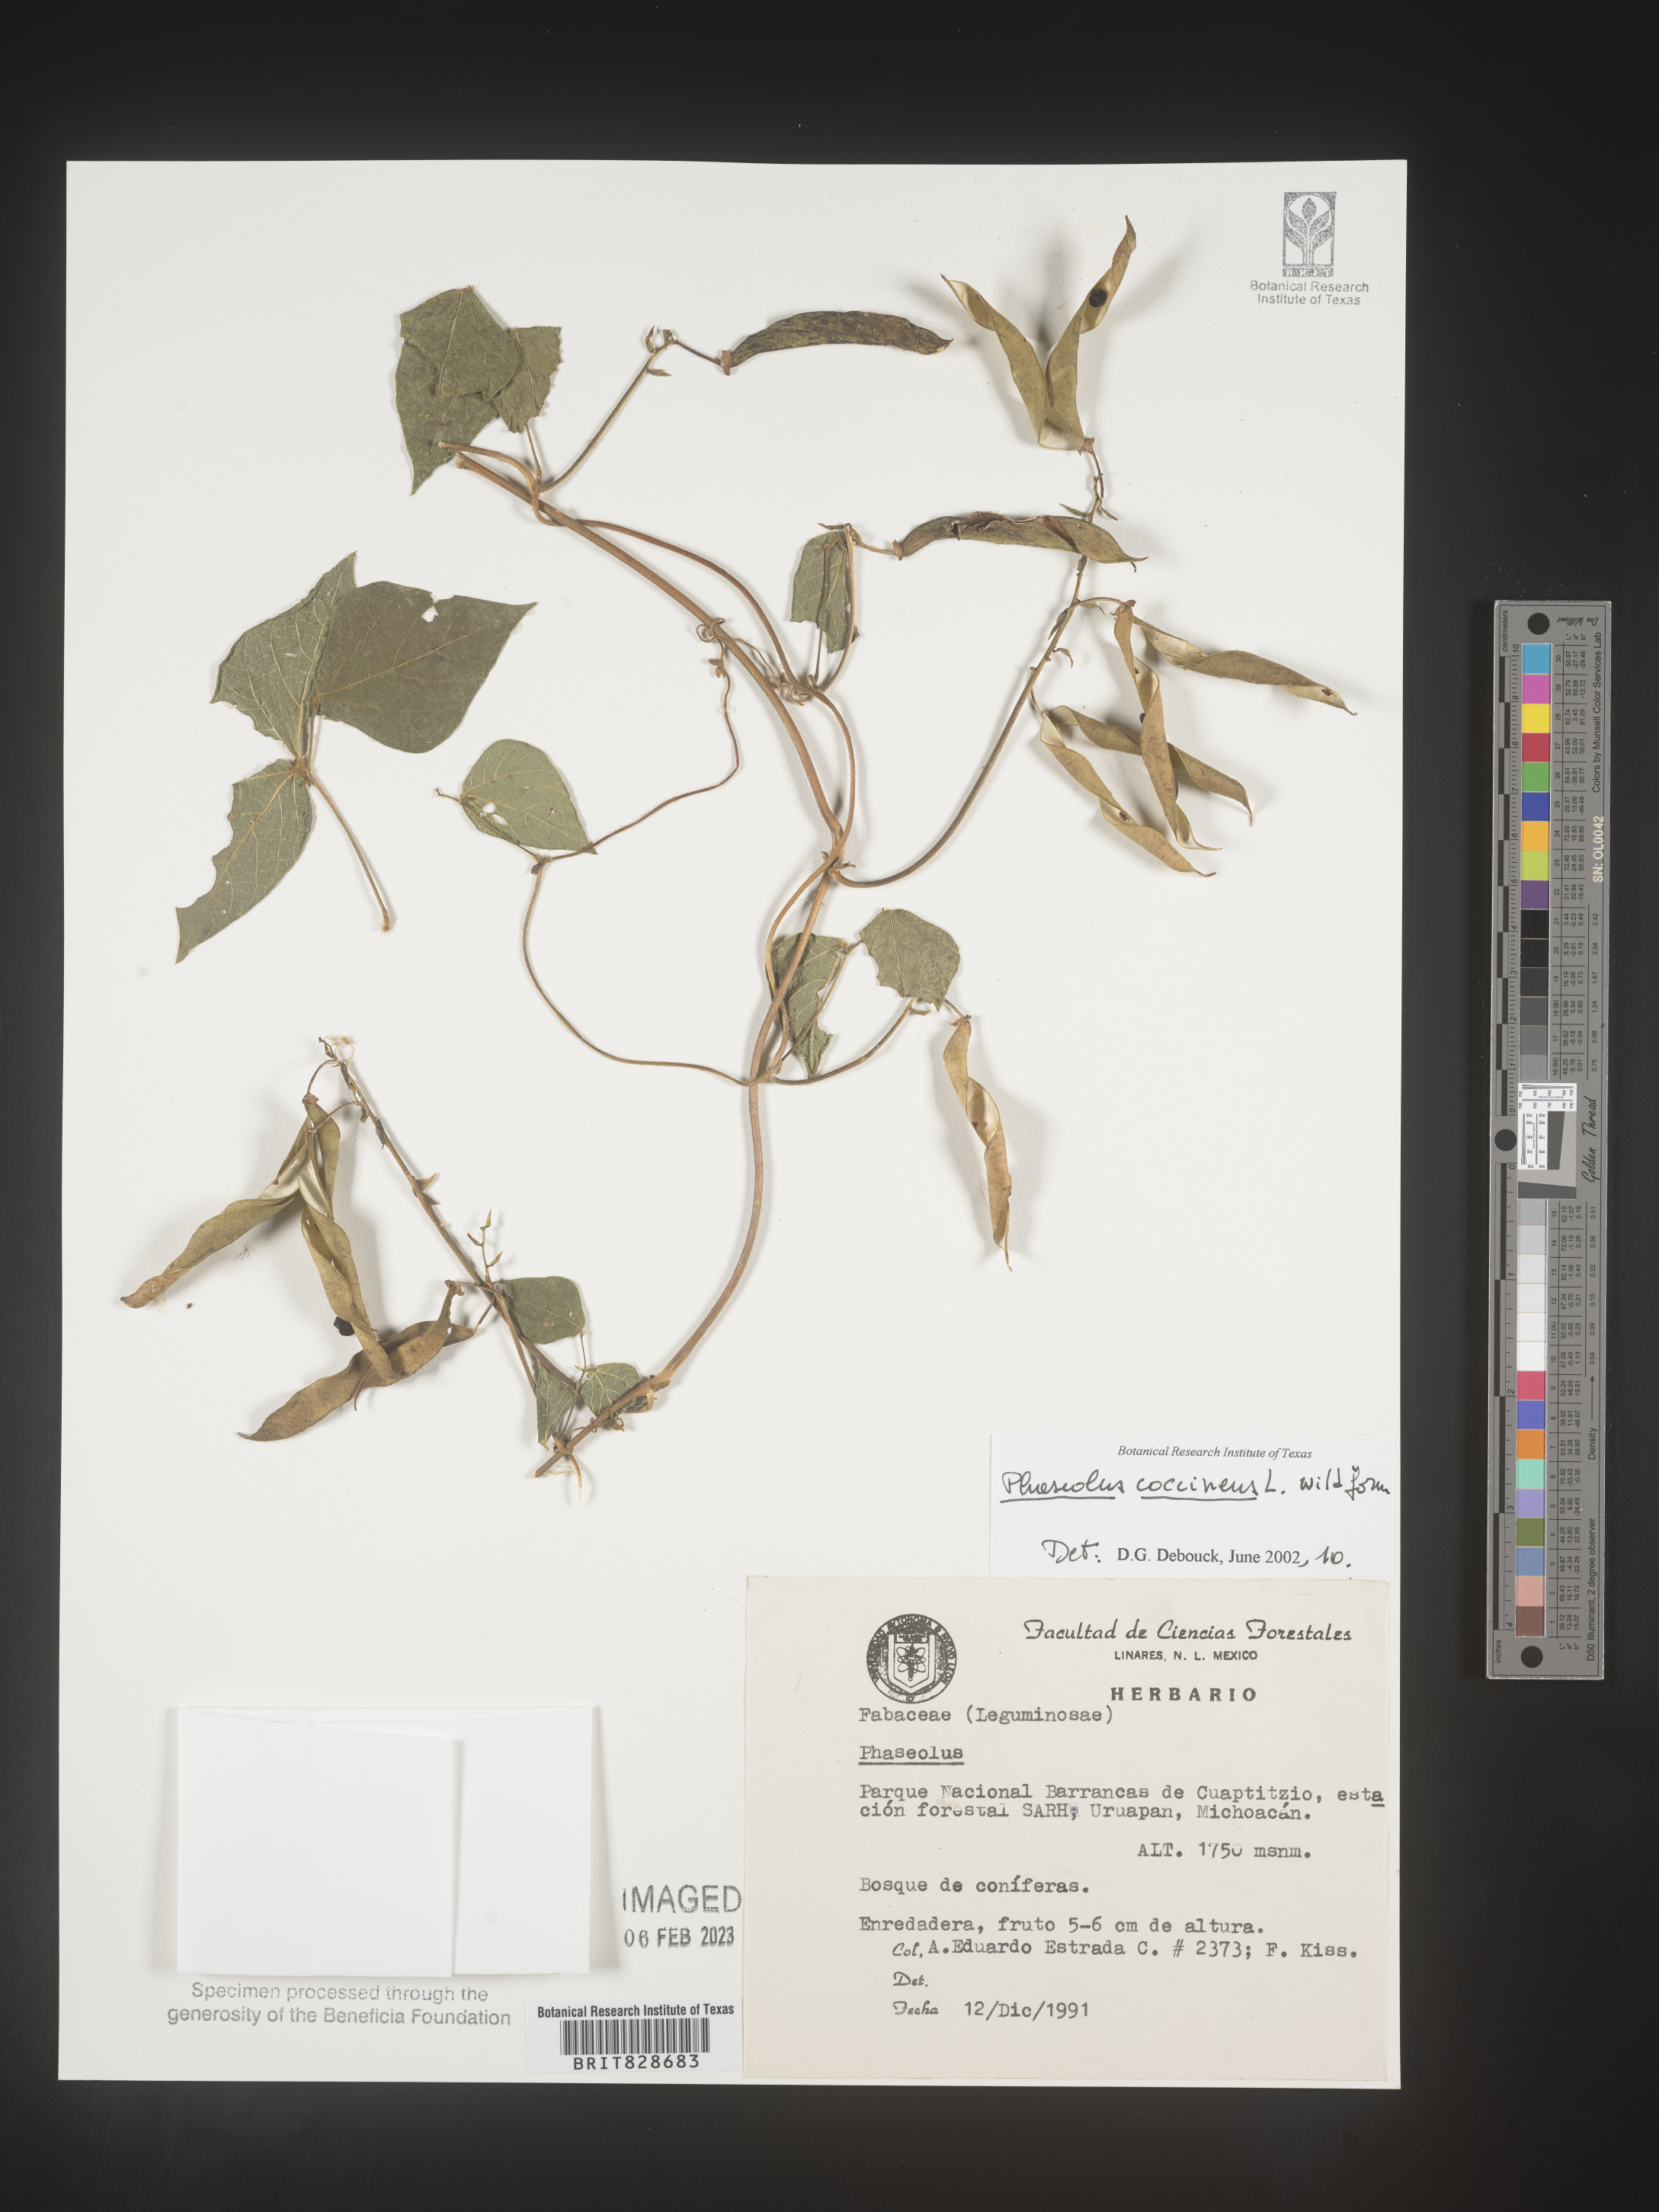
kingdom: Plantae
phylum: Tracheophyta
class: Magnoliopsida
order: Fabales
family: Fabaceae
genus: Phaseolus
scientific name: Phaseolus
